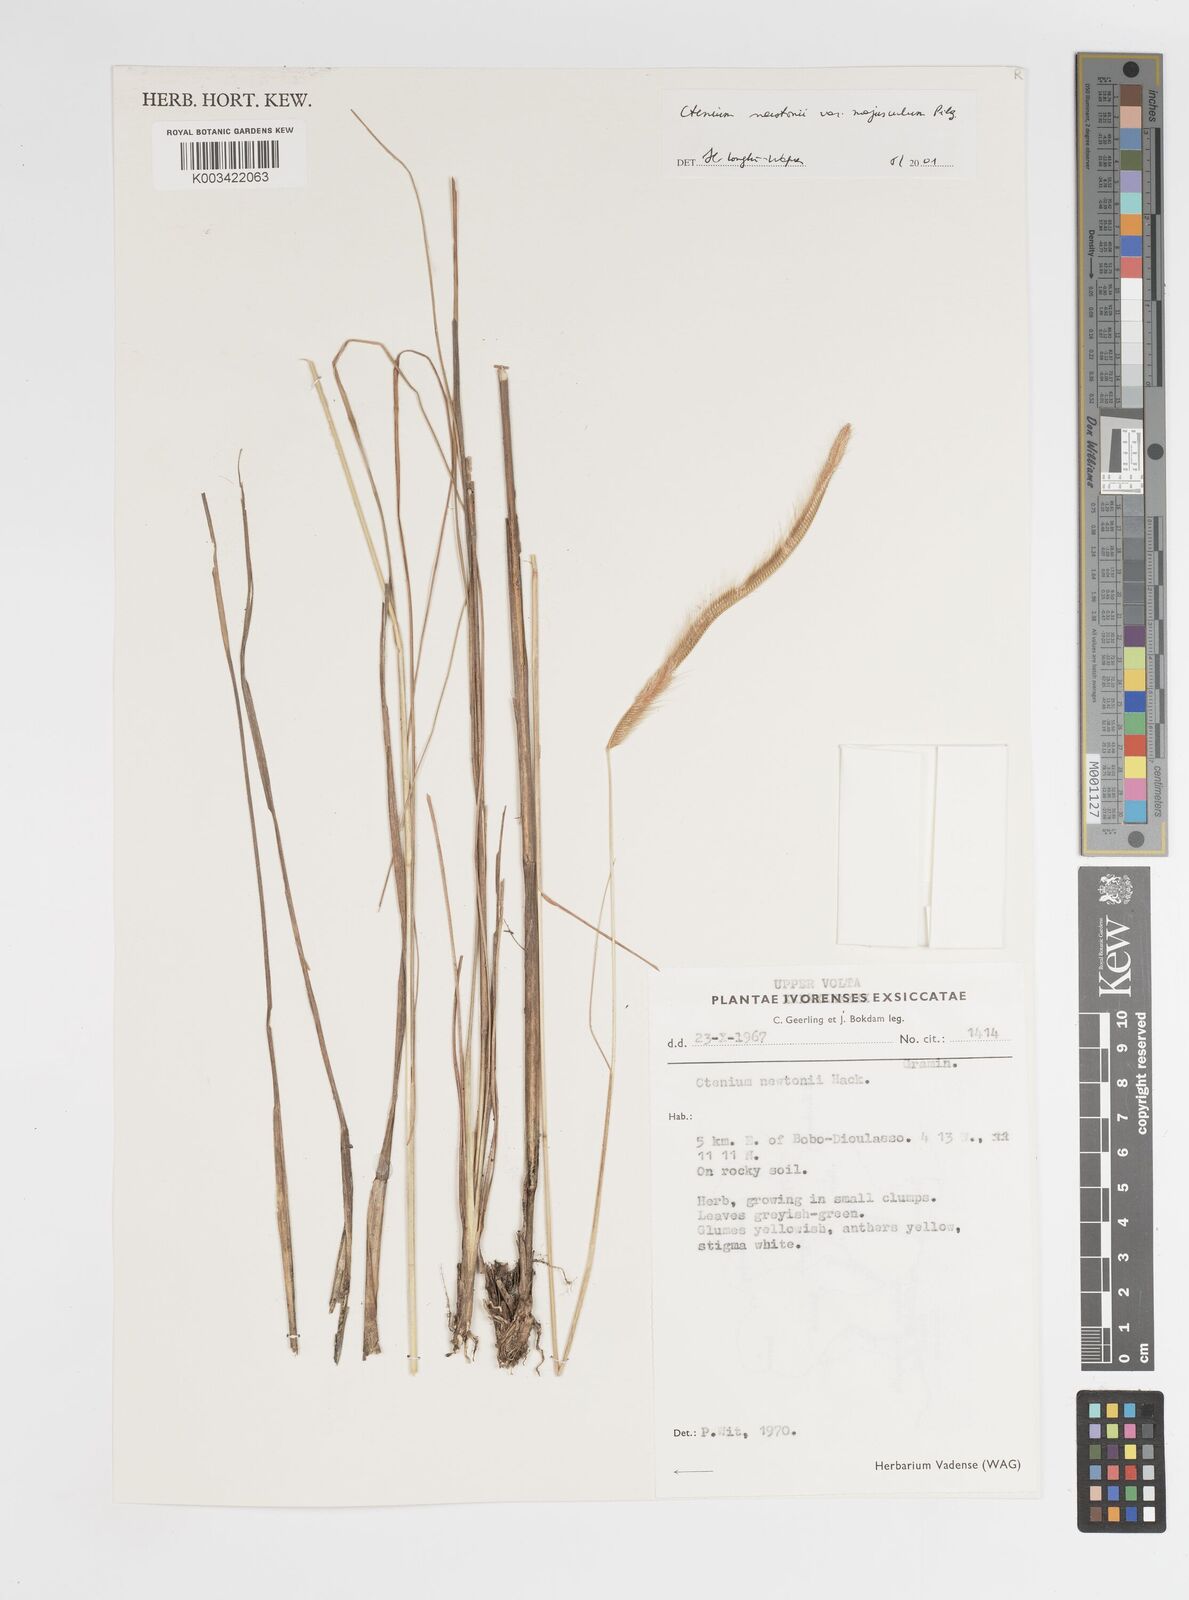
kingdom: Plantae
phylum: Tracheophyta
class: Liliopsida
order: Poales
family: Poaceae
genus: Ctenium
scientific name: Ctenium newtonii
